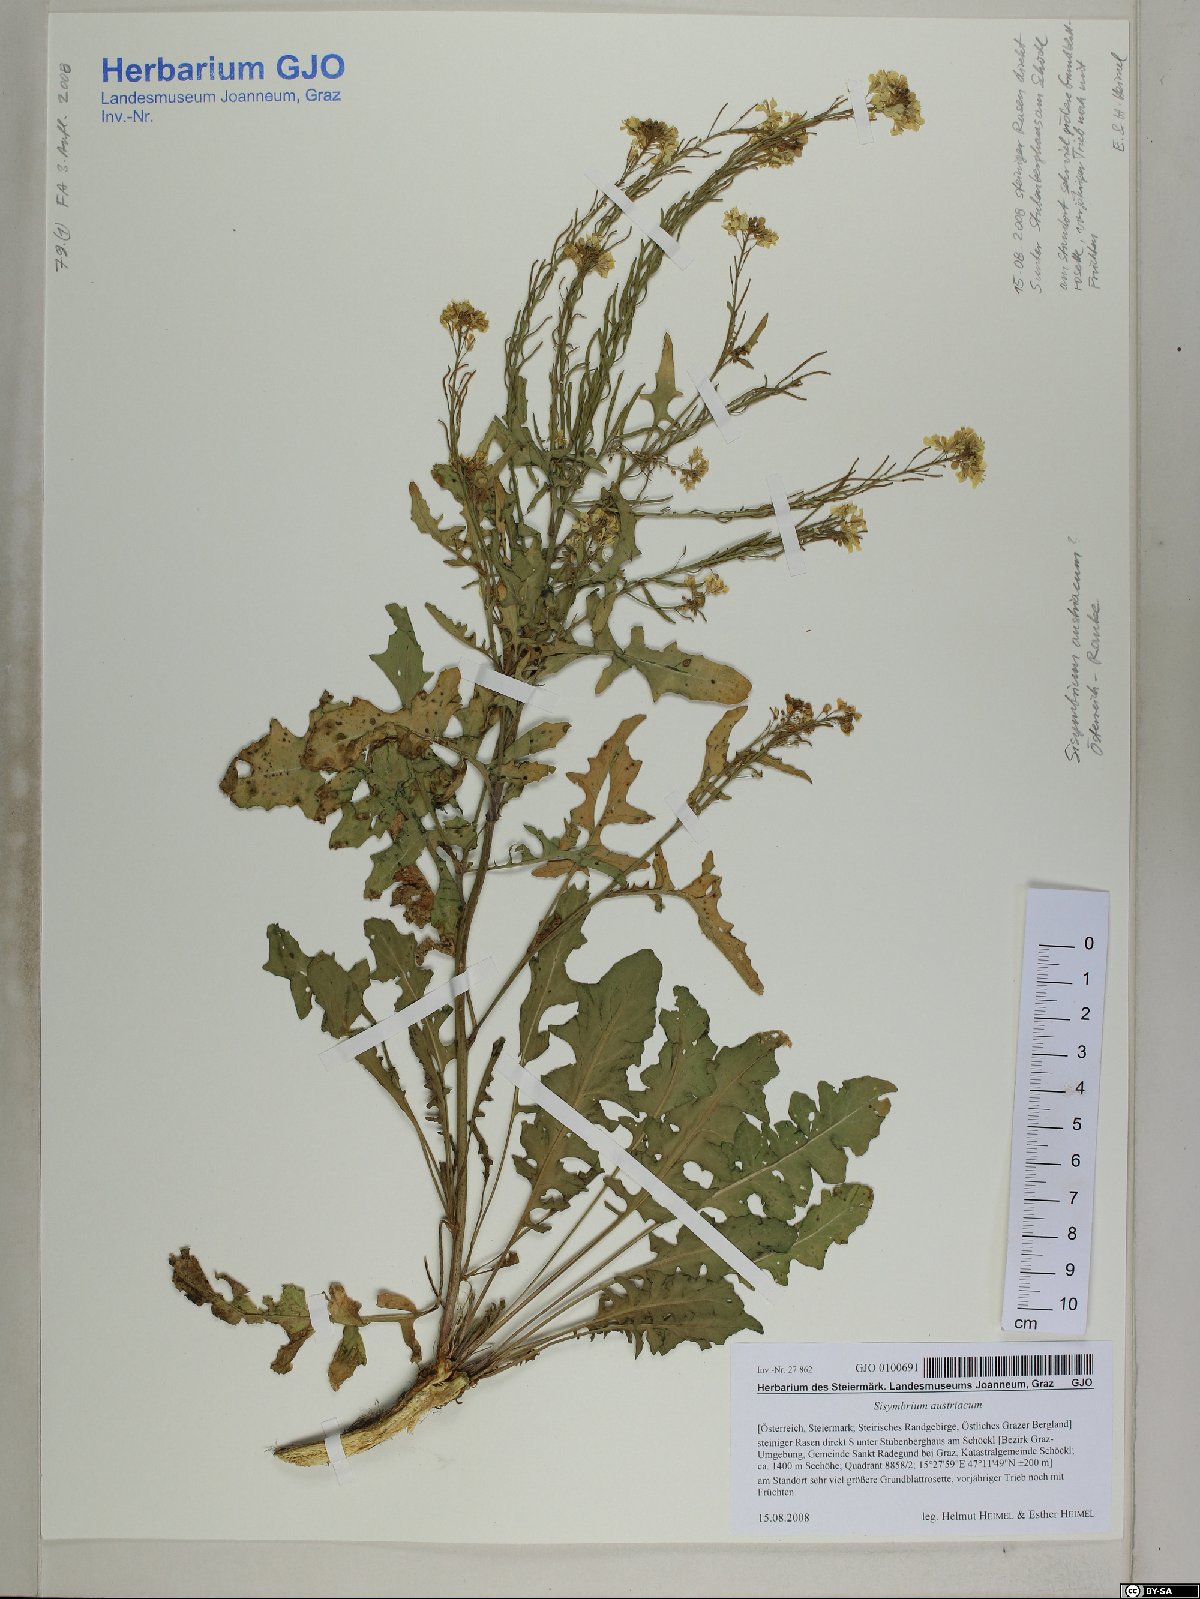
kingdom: Plantae
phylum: Tracheophyta
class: Magnoliopsida
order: Brassicales
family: Brassicaceae
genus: Sisymbrium
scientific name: Sisymbrium austriacum
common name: Jeweled rocket
